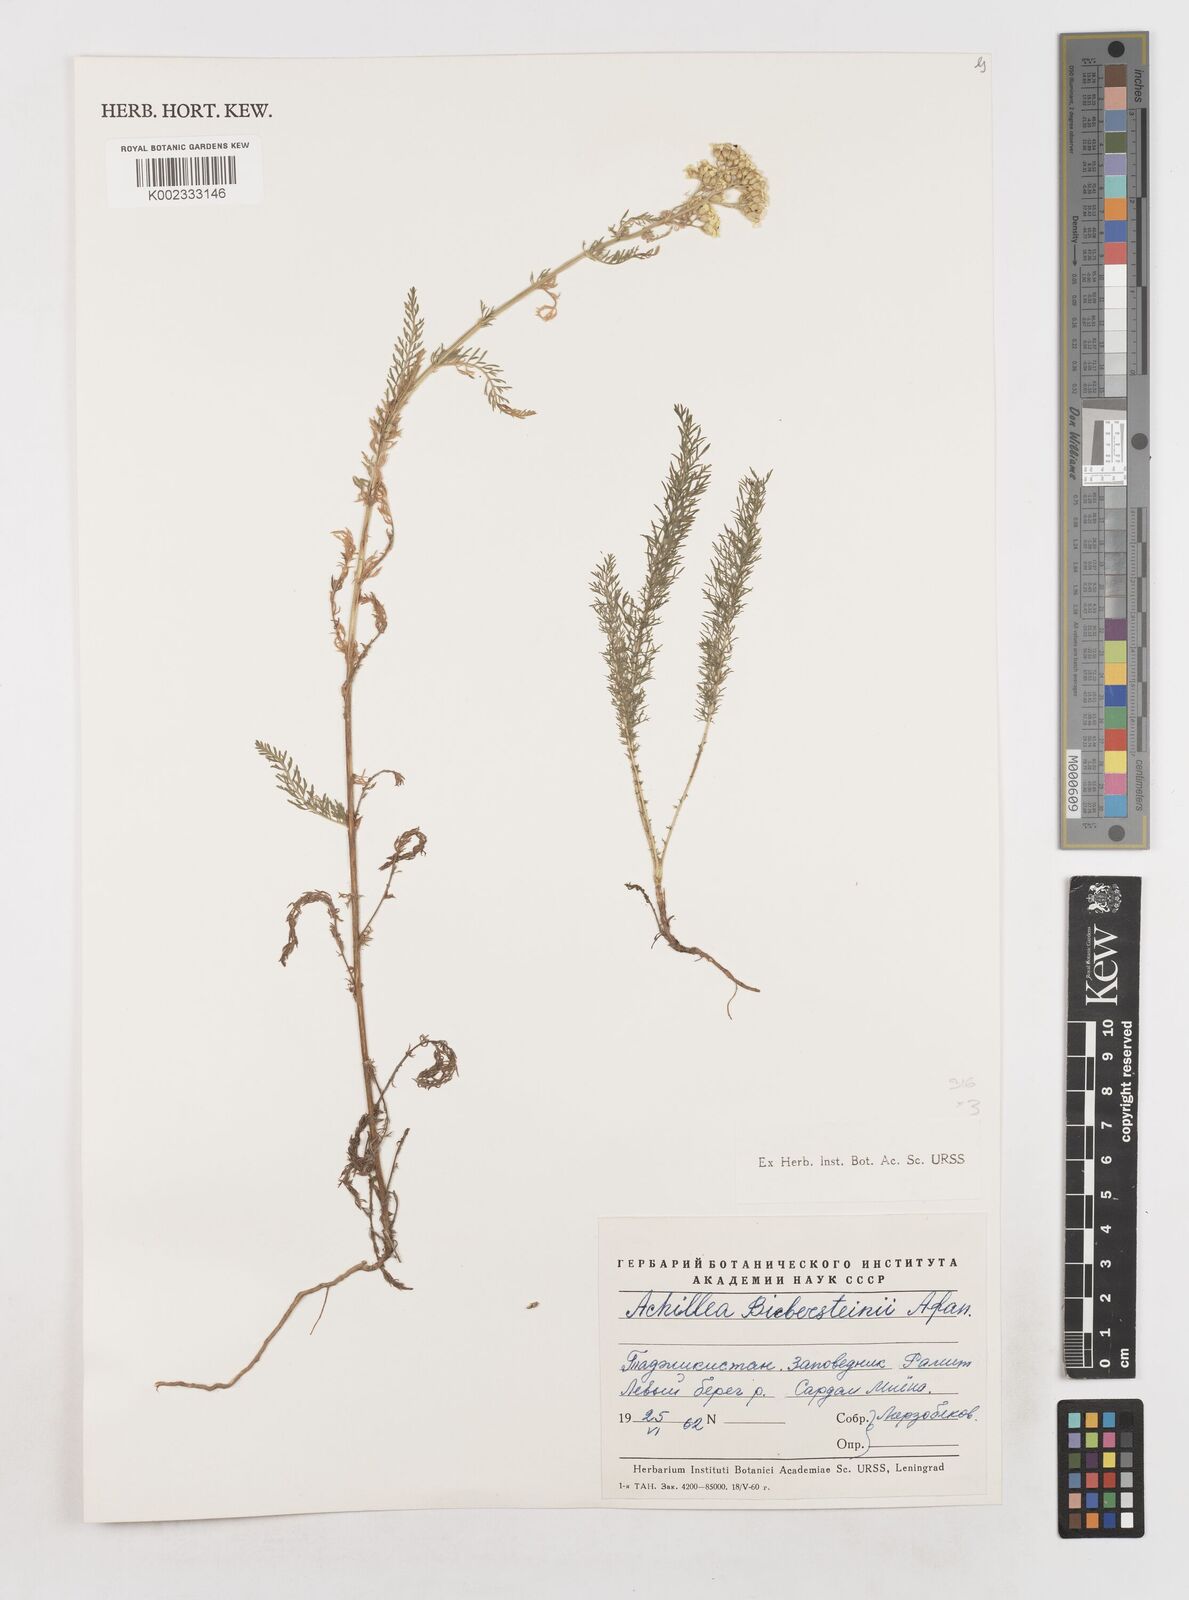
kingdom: Plantae
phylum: Tracheophyta
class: Magnoliopsida
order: Asterales
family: Asteraceae
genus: Achillea
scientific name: Achillea arabica
